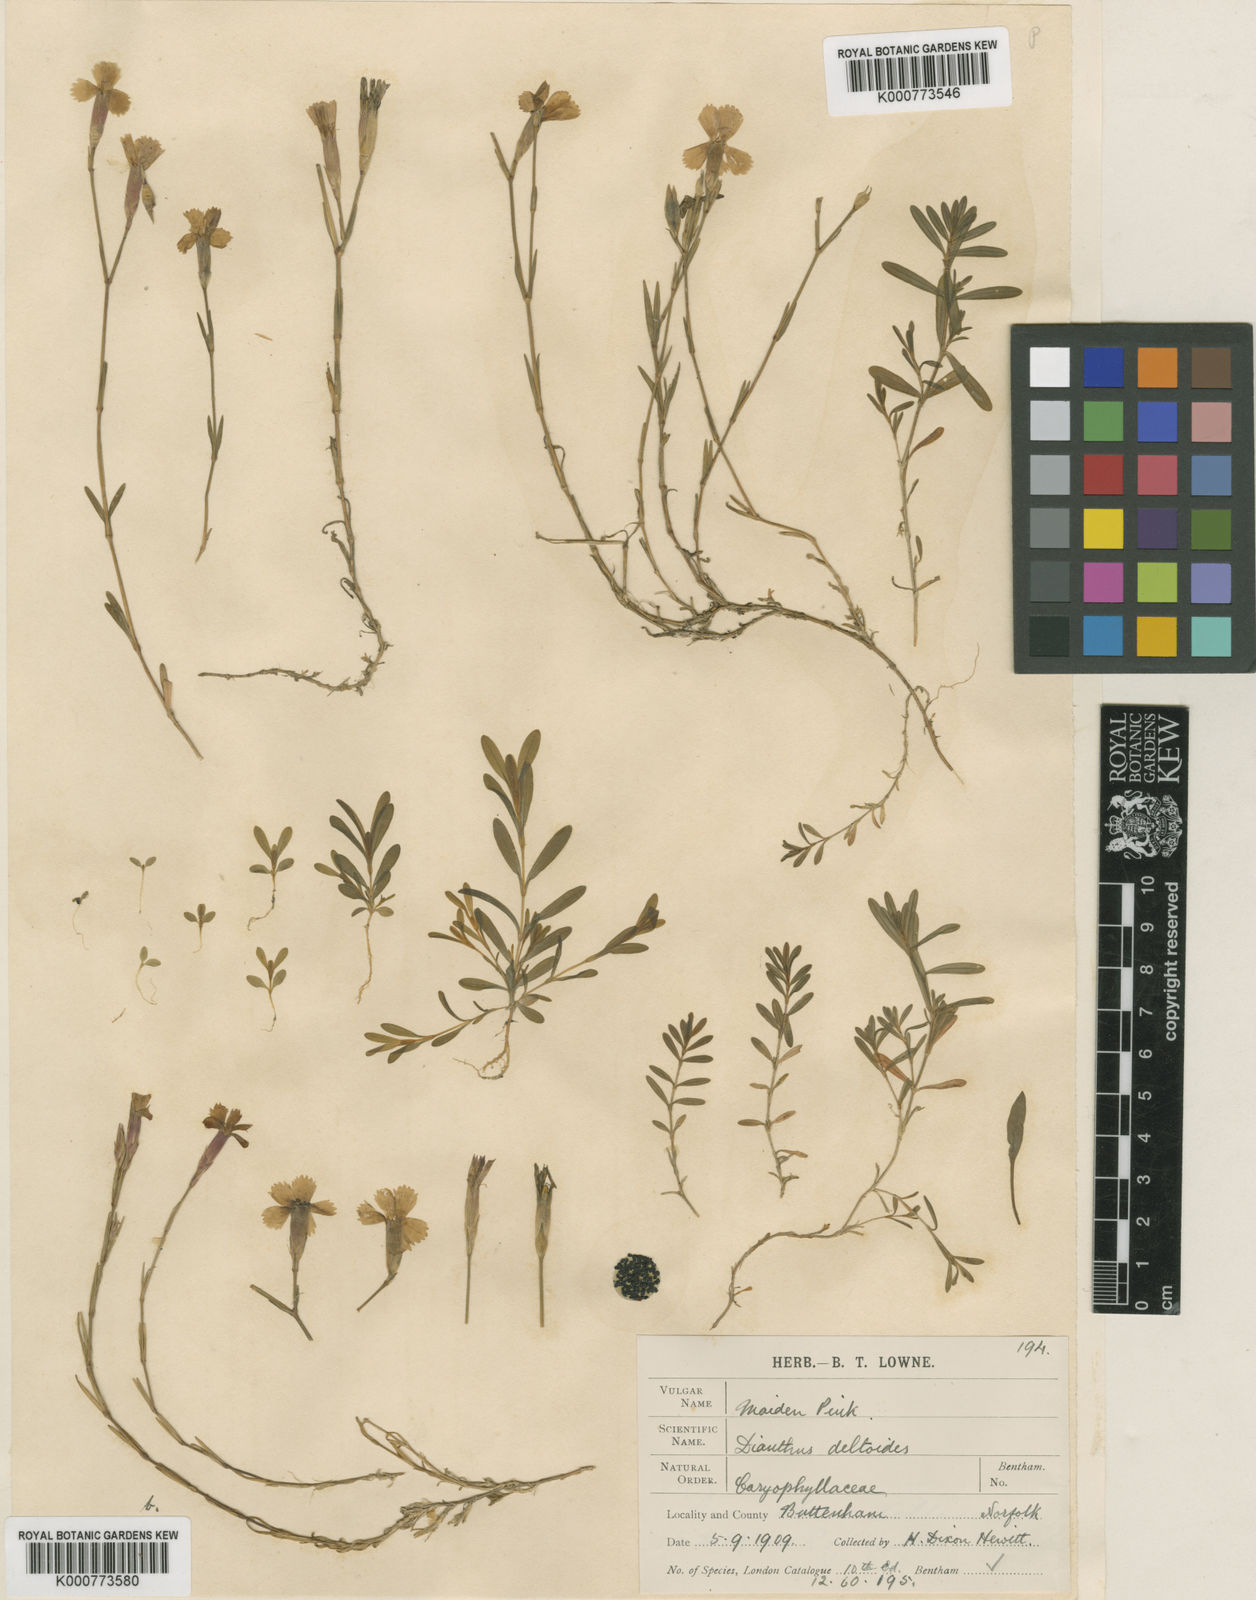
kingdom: Plantae
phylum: Tracheophyta
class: Magnoliopsida
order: Caryophyllales
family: Caryophyllaceae
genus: Dianthus
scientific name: Dianthus deltoides
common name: Maiden pink
